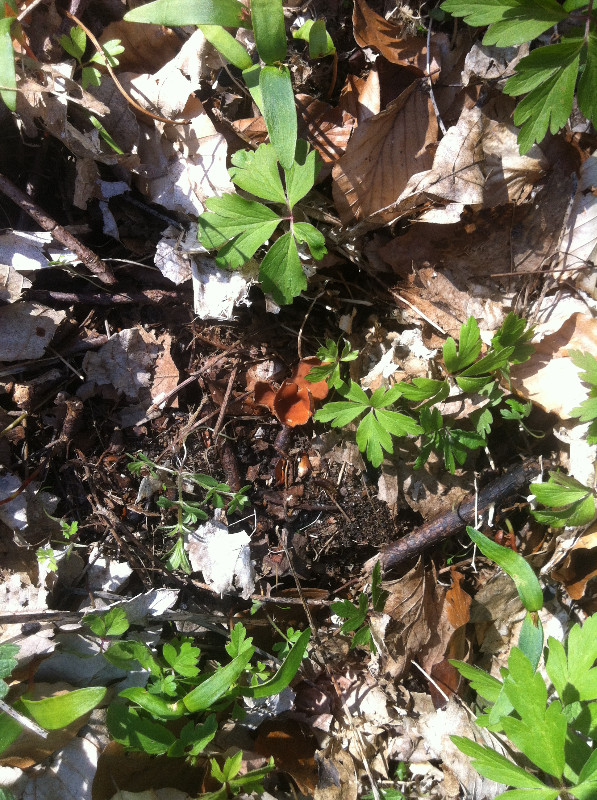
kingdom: Fungi
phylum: Ascomycota
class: Leotiomycetes
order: Helotiales
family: Sclerotiniaceae
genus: Dumontinia
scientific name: Dumontinia tuberosa
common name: anemone-knoldskive
